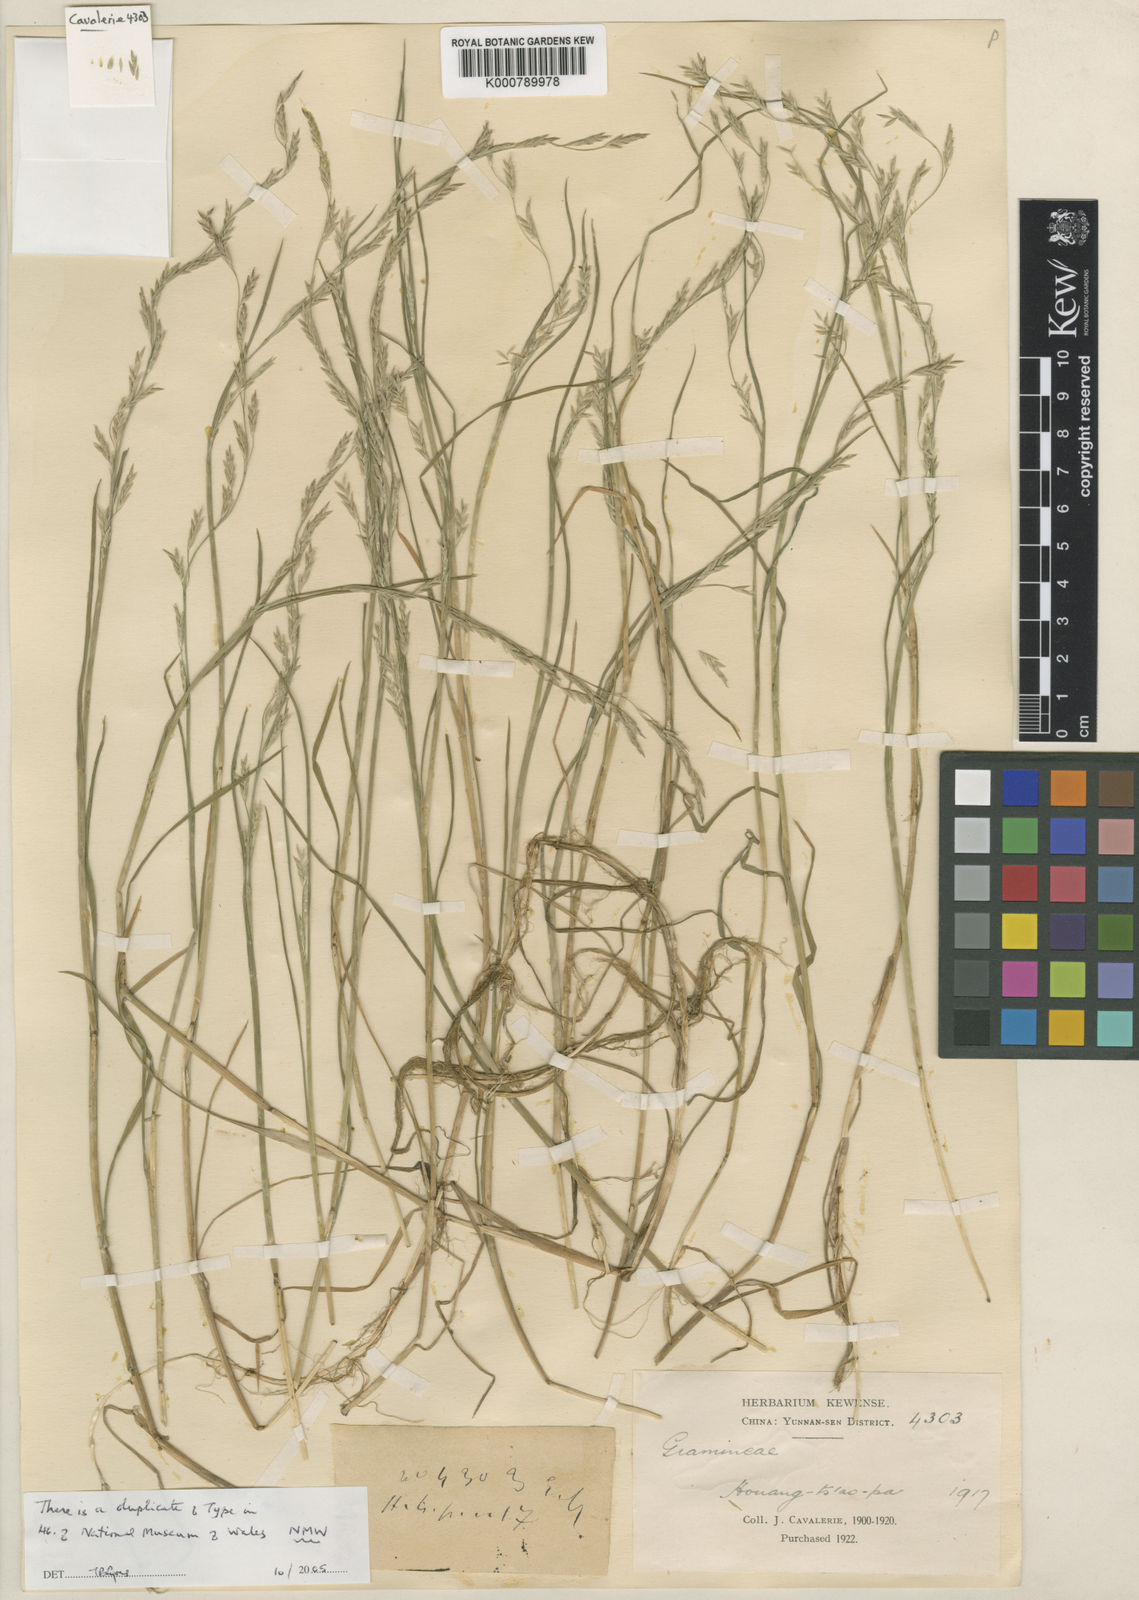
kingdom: Plantae
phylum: Tracheophyta
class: Liliopsida
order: Poales
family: Poaceae
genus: Glyceria
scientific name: Glyceria chinensis
